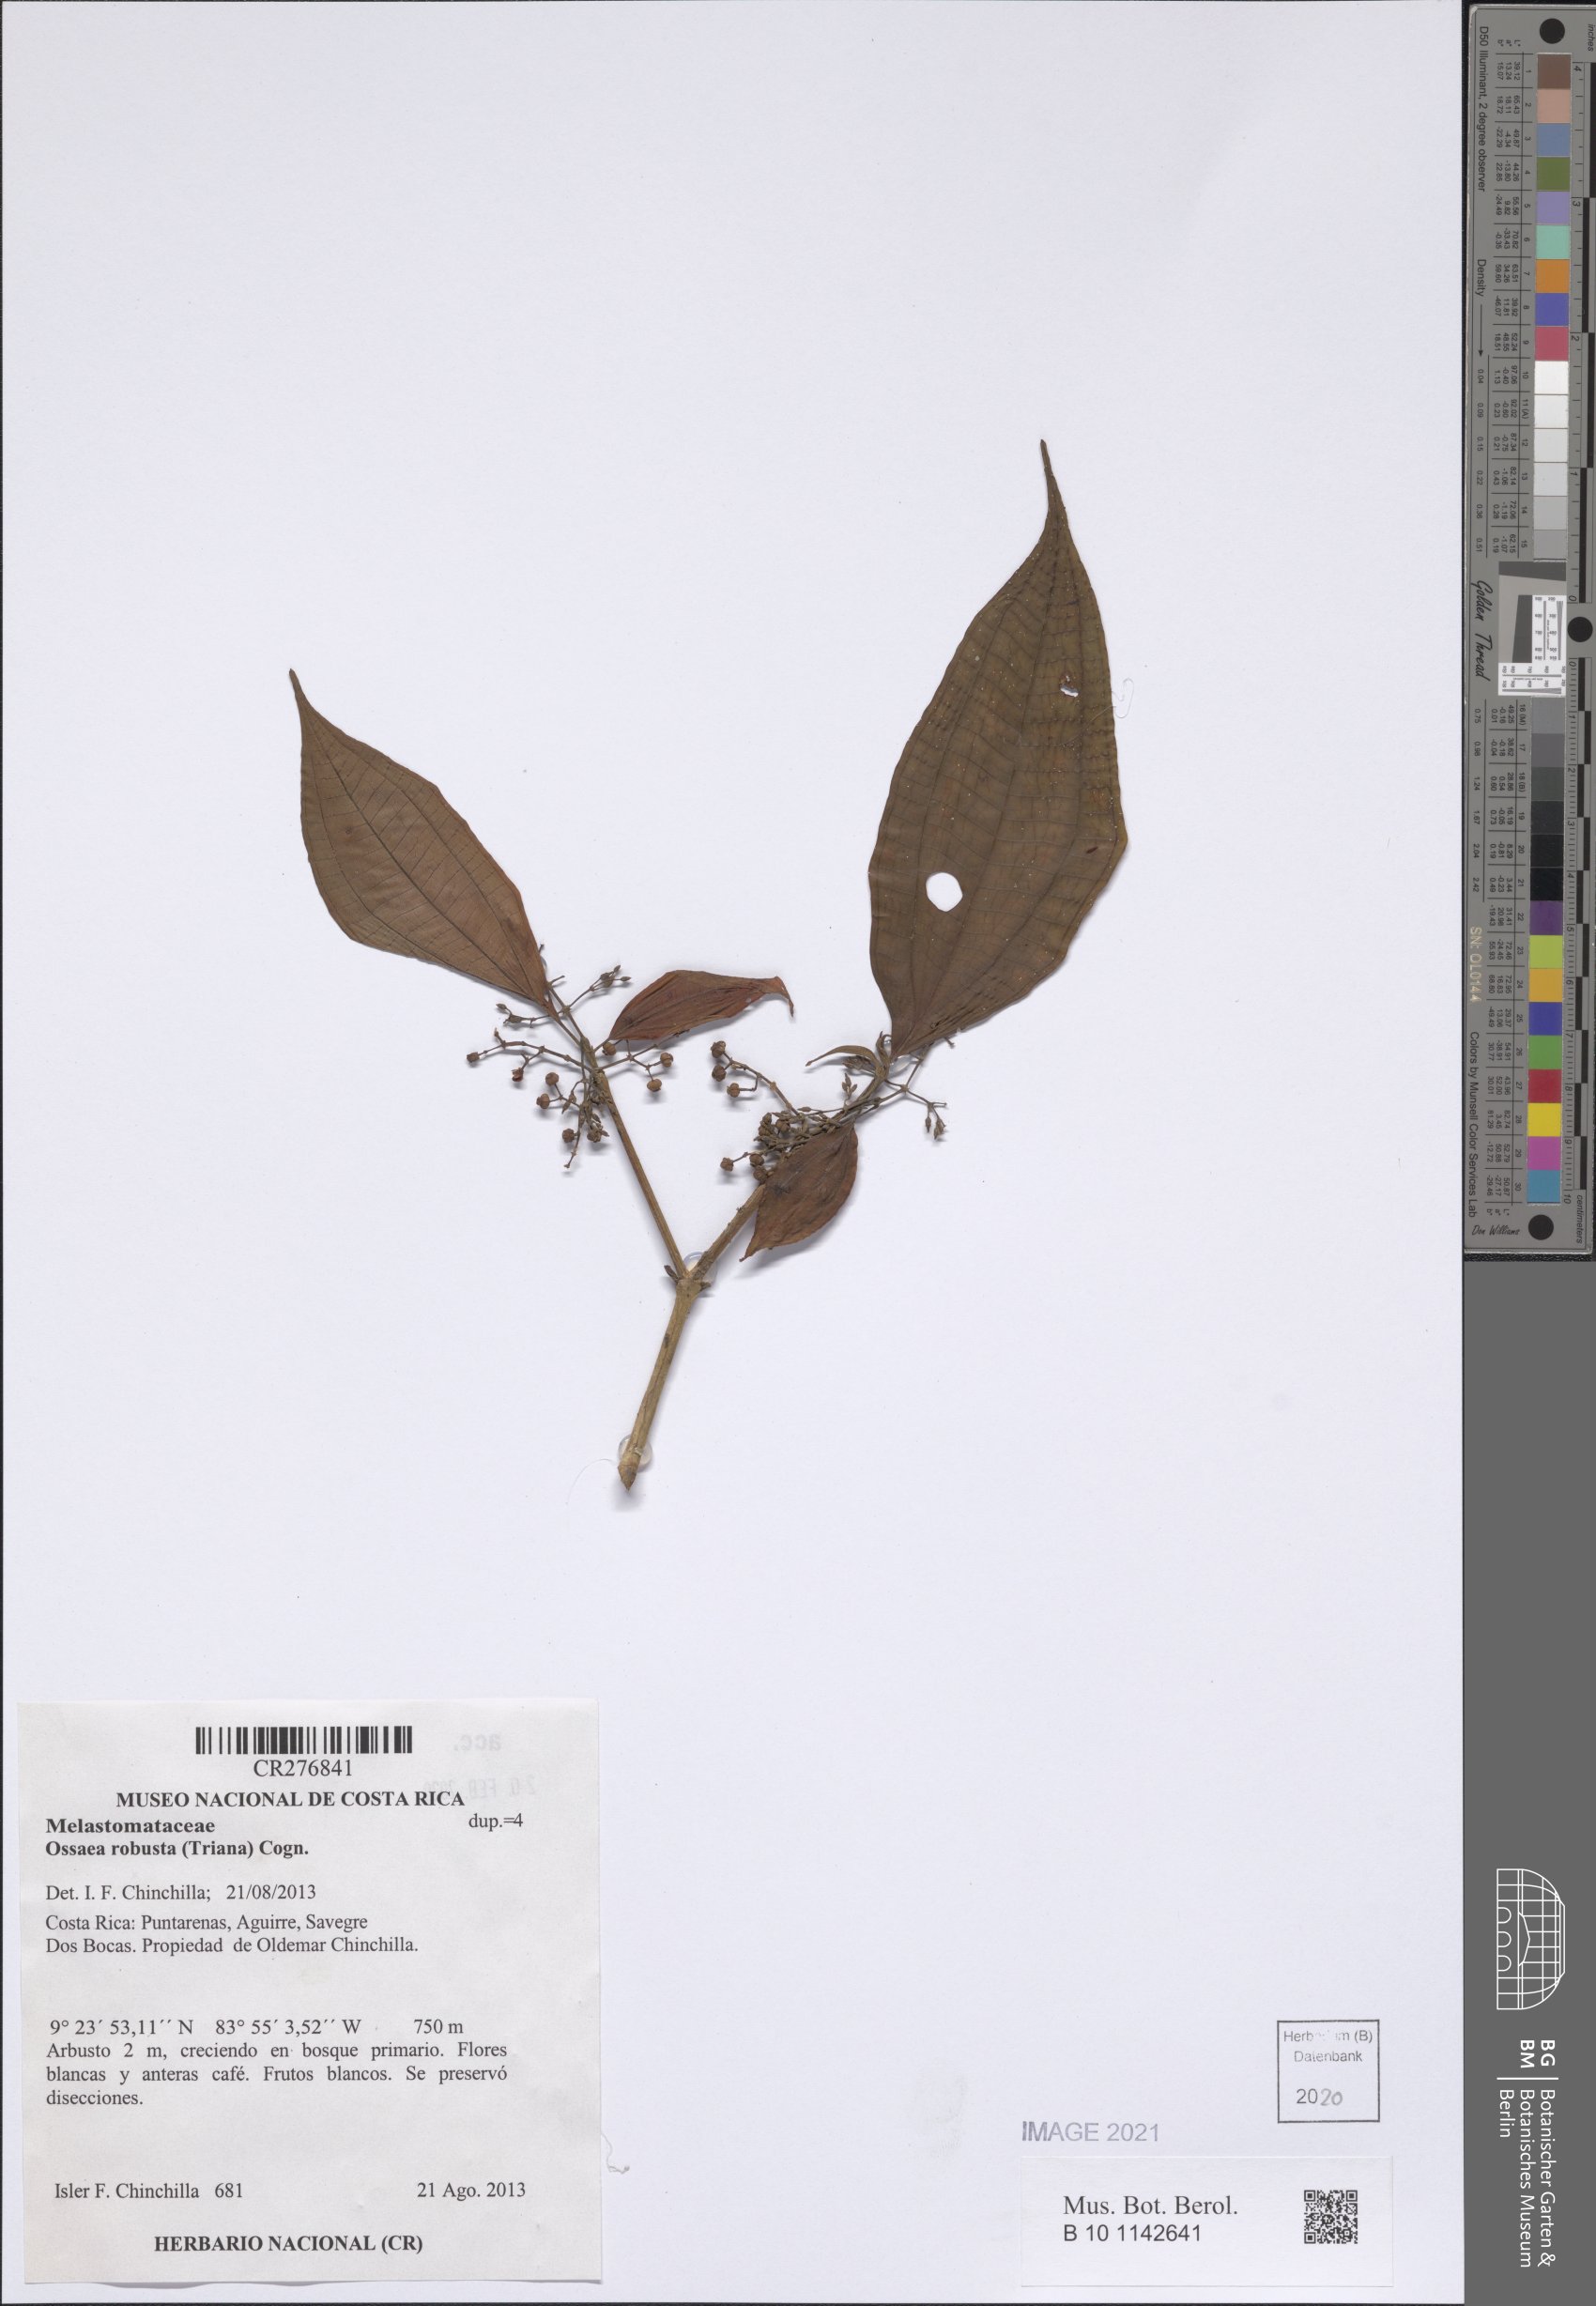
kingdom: Plantae
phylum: Tracheophyta
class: Magnoliopsida
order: Myrtales
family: Melastomataceae
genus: Miconia
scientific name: Miconia variabilis
